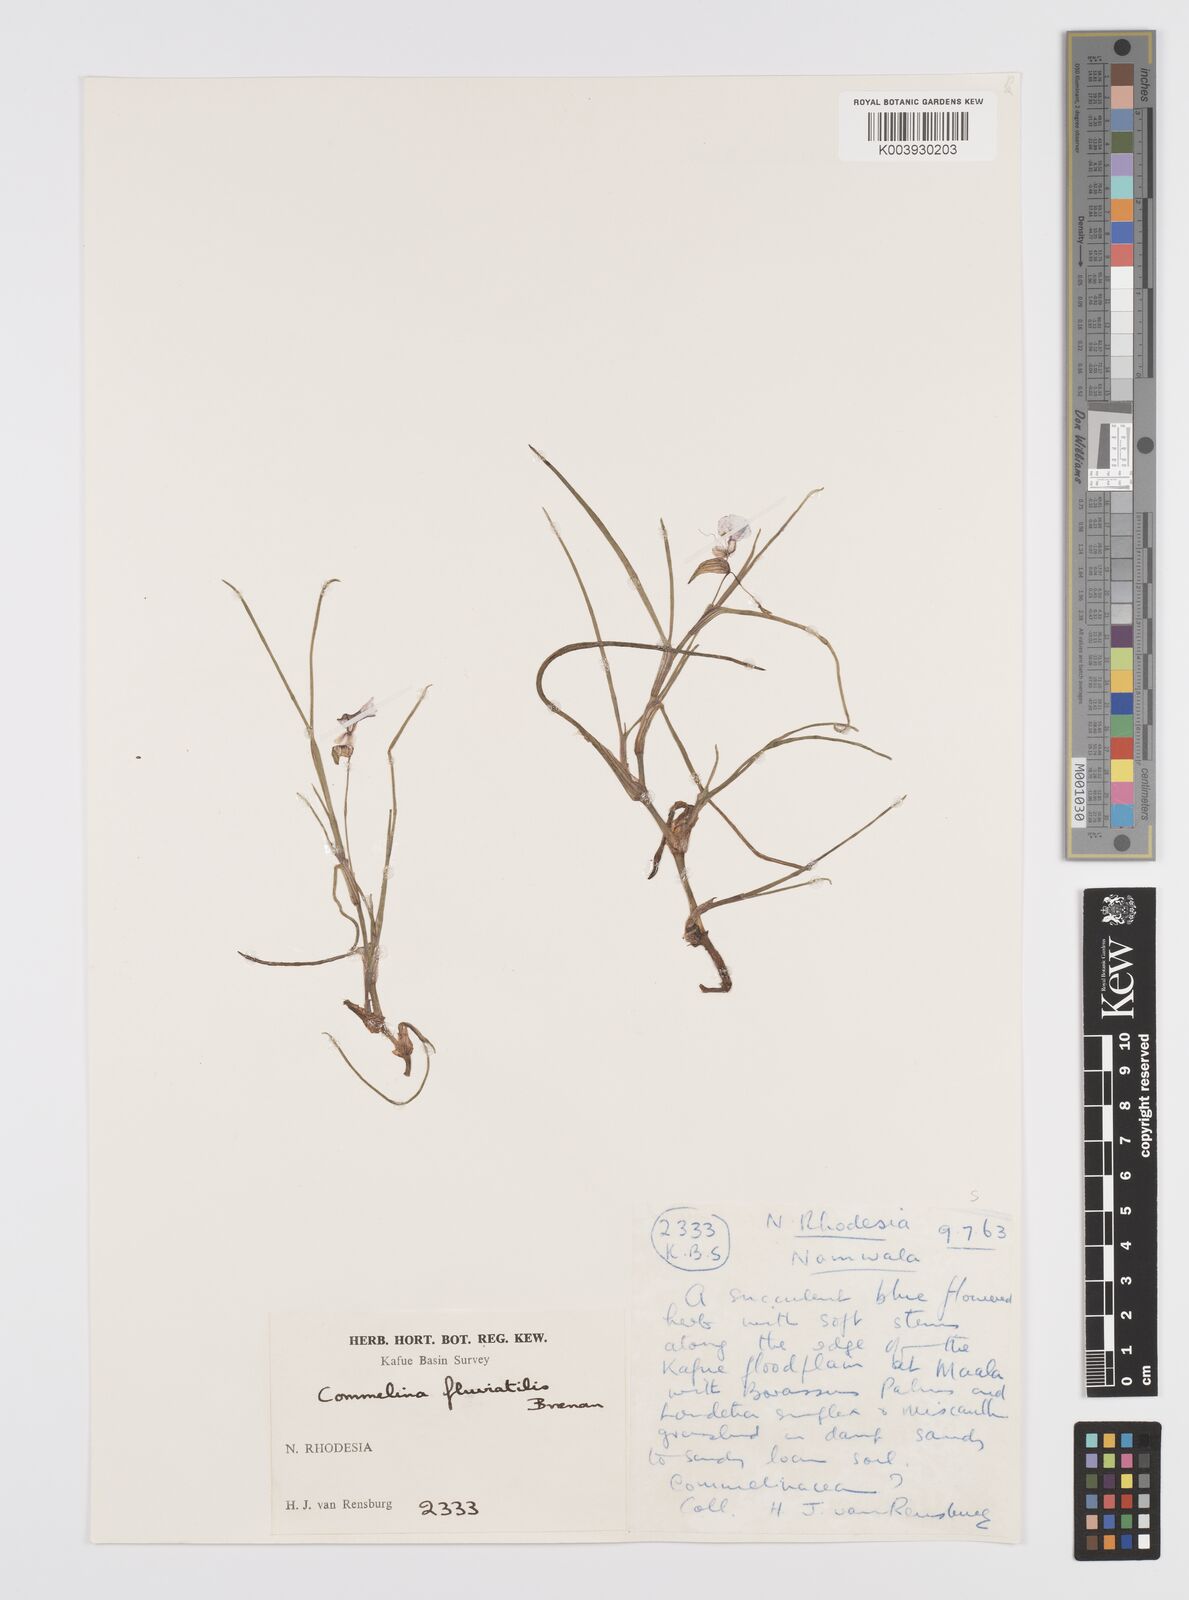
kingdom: Plantae
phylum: Tracheophyta
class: Liliopsida
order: Commelinales
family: Commelinaceae
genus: Commelina
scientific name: Commelina fluviatilis
